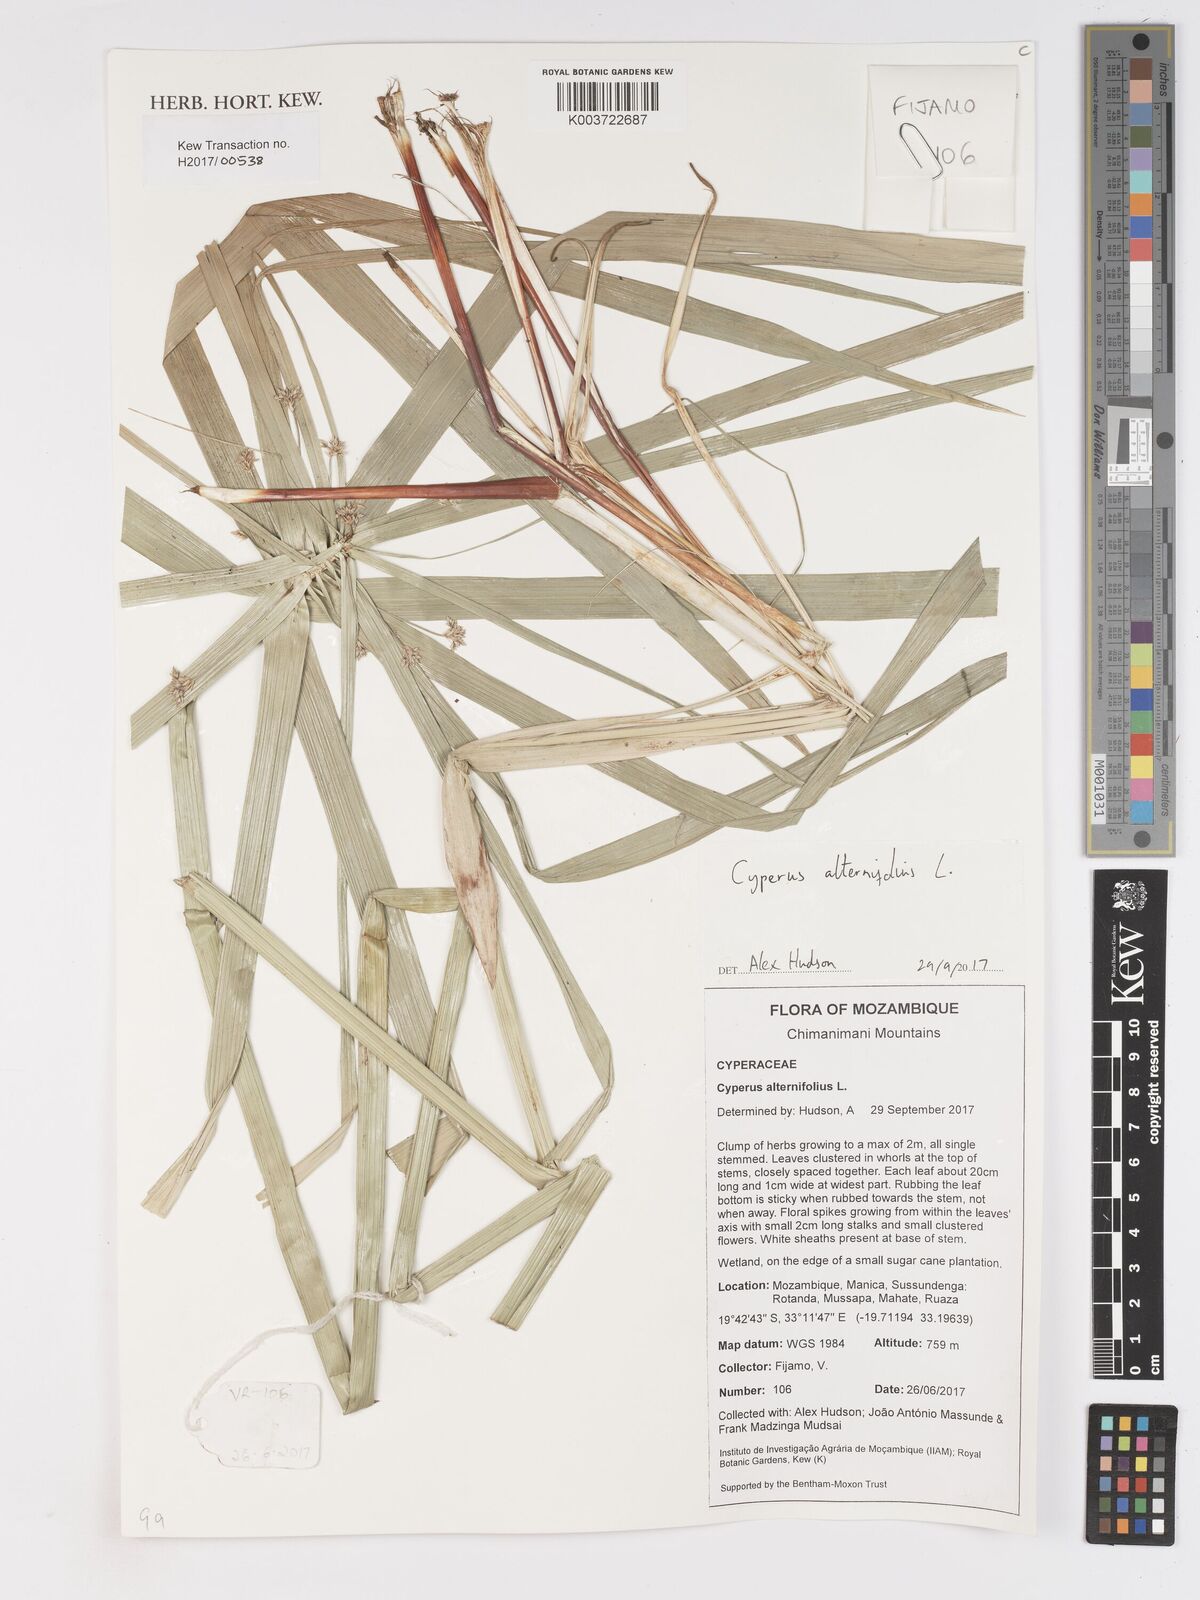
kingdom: Plantae
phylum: Tracheophyta
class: Liliopsida
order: Poales
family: Cyperaceae
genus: Cyperus
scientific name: Cyperus alternifolius
